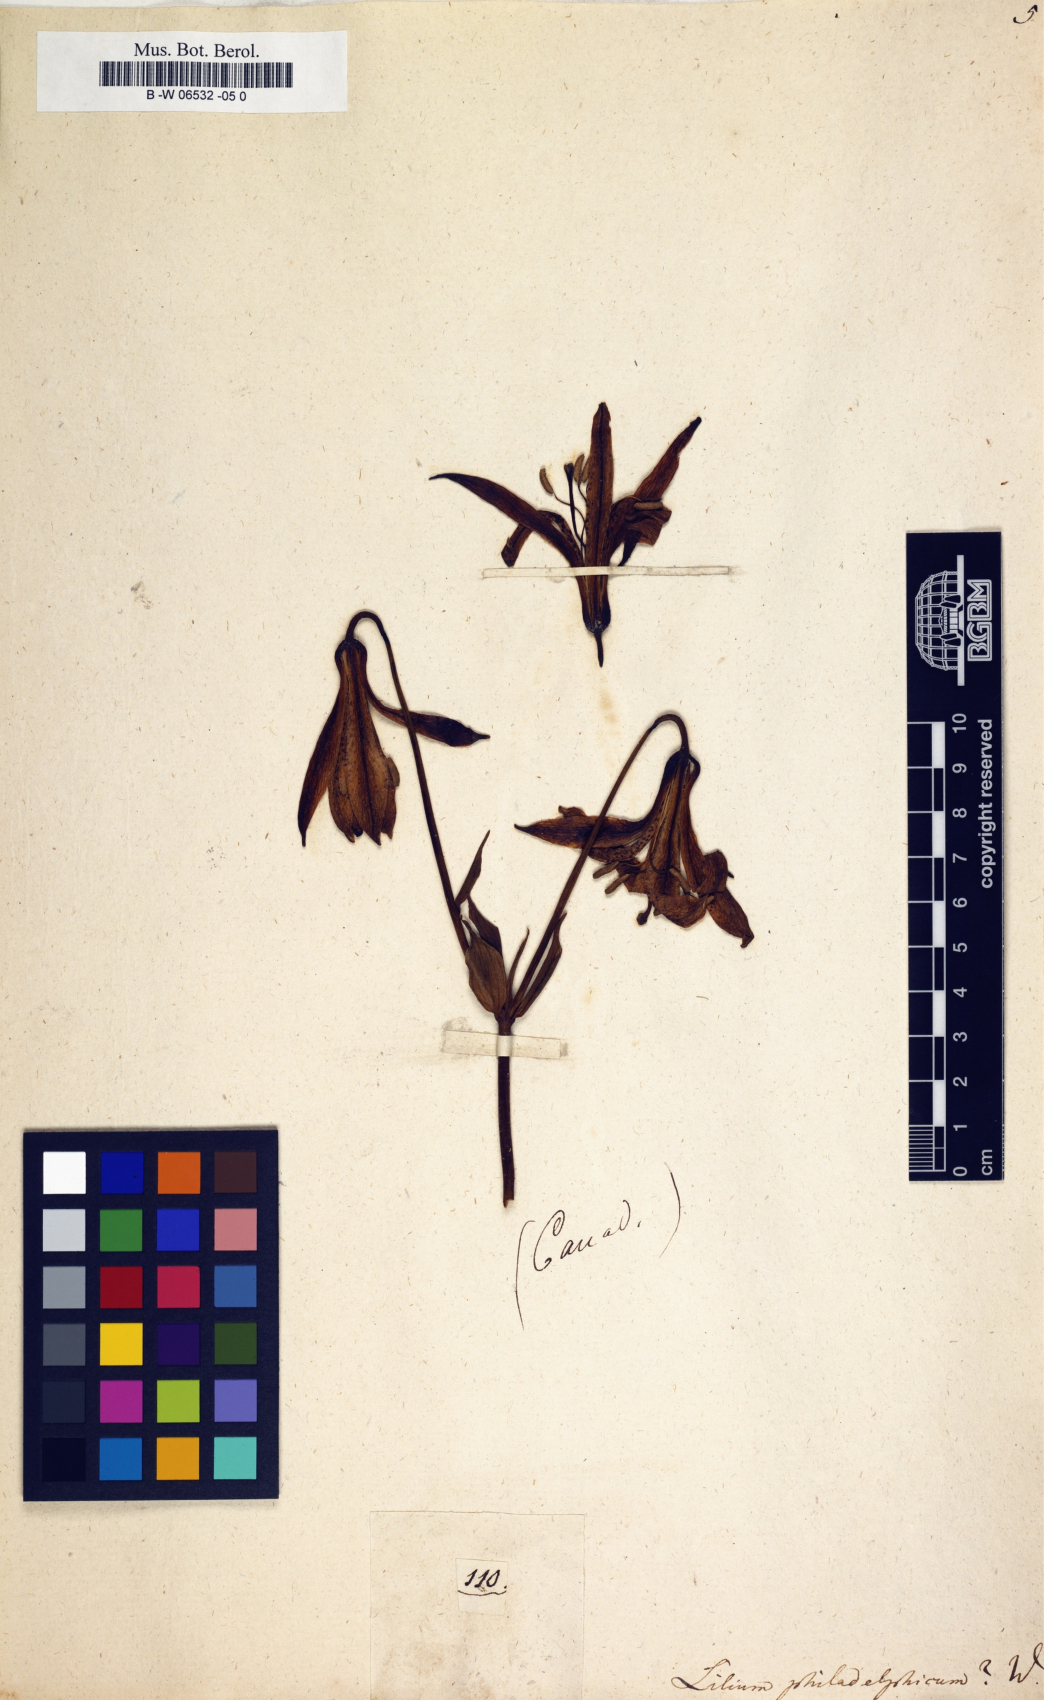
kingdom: Plantae
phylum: Tracheophyta
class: Liliopsida
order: Liliales
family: Liliaceae
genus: Lilium
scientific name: Lilium philadelphicum
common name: Red lily
